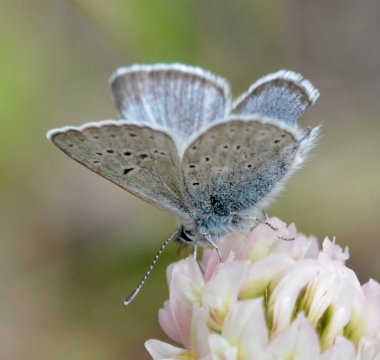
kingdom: Animalia
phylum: Arthropoda
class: Insecta
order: Lepidoptera
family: Lycaenidae
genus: Elkalyce
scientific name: Elkalyce amyntula
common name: Western Tailed-Blue
